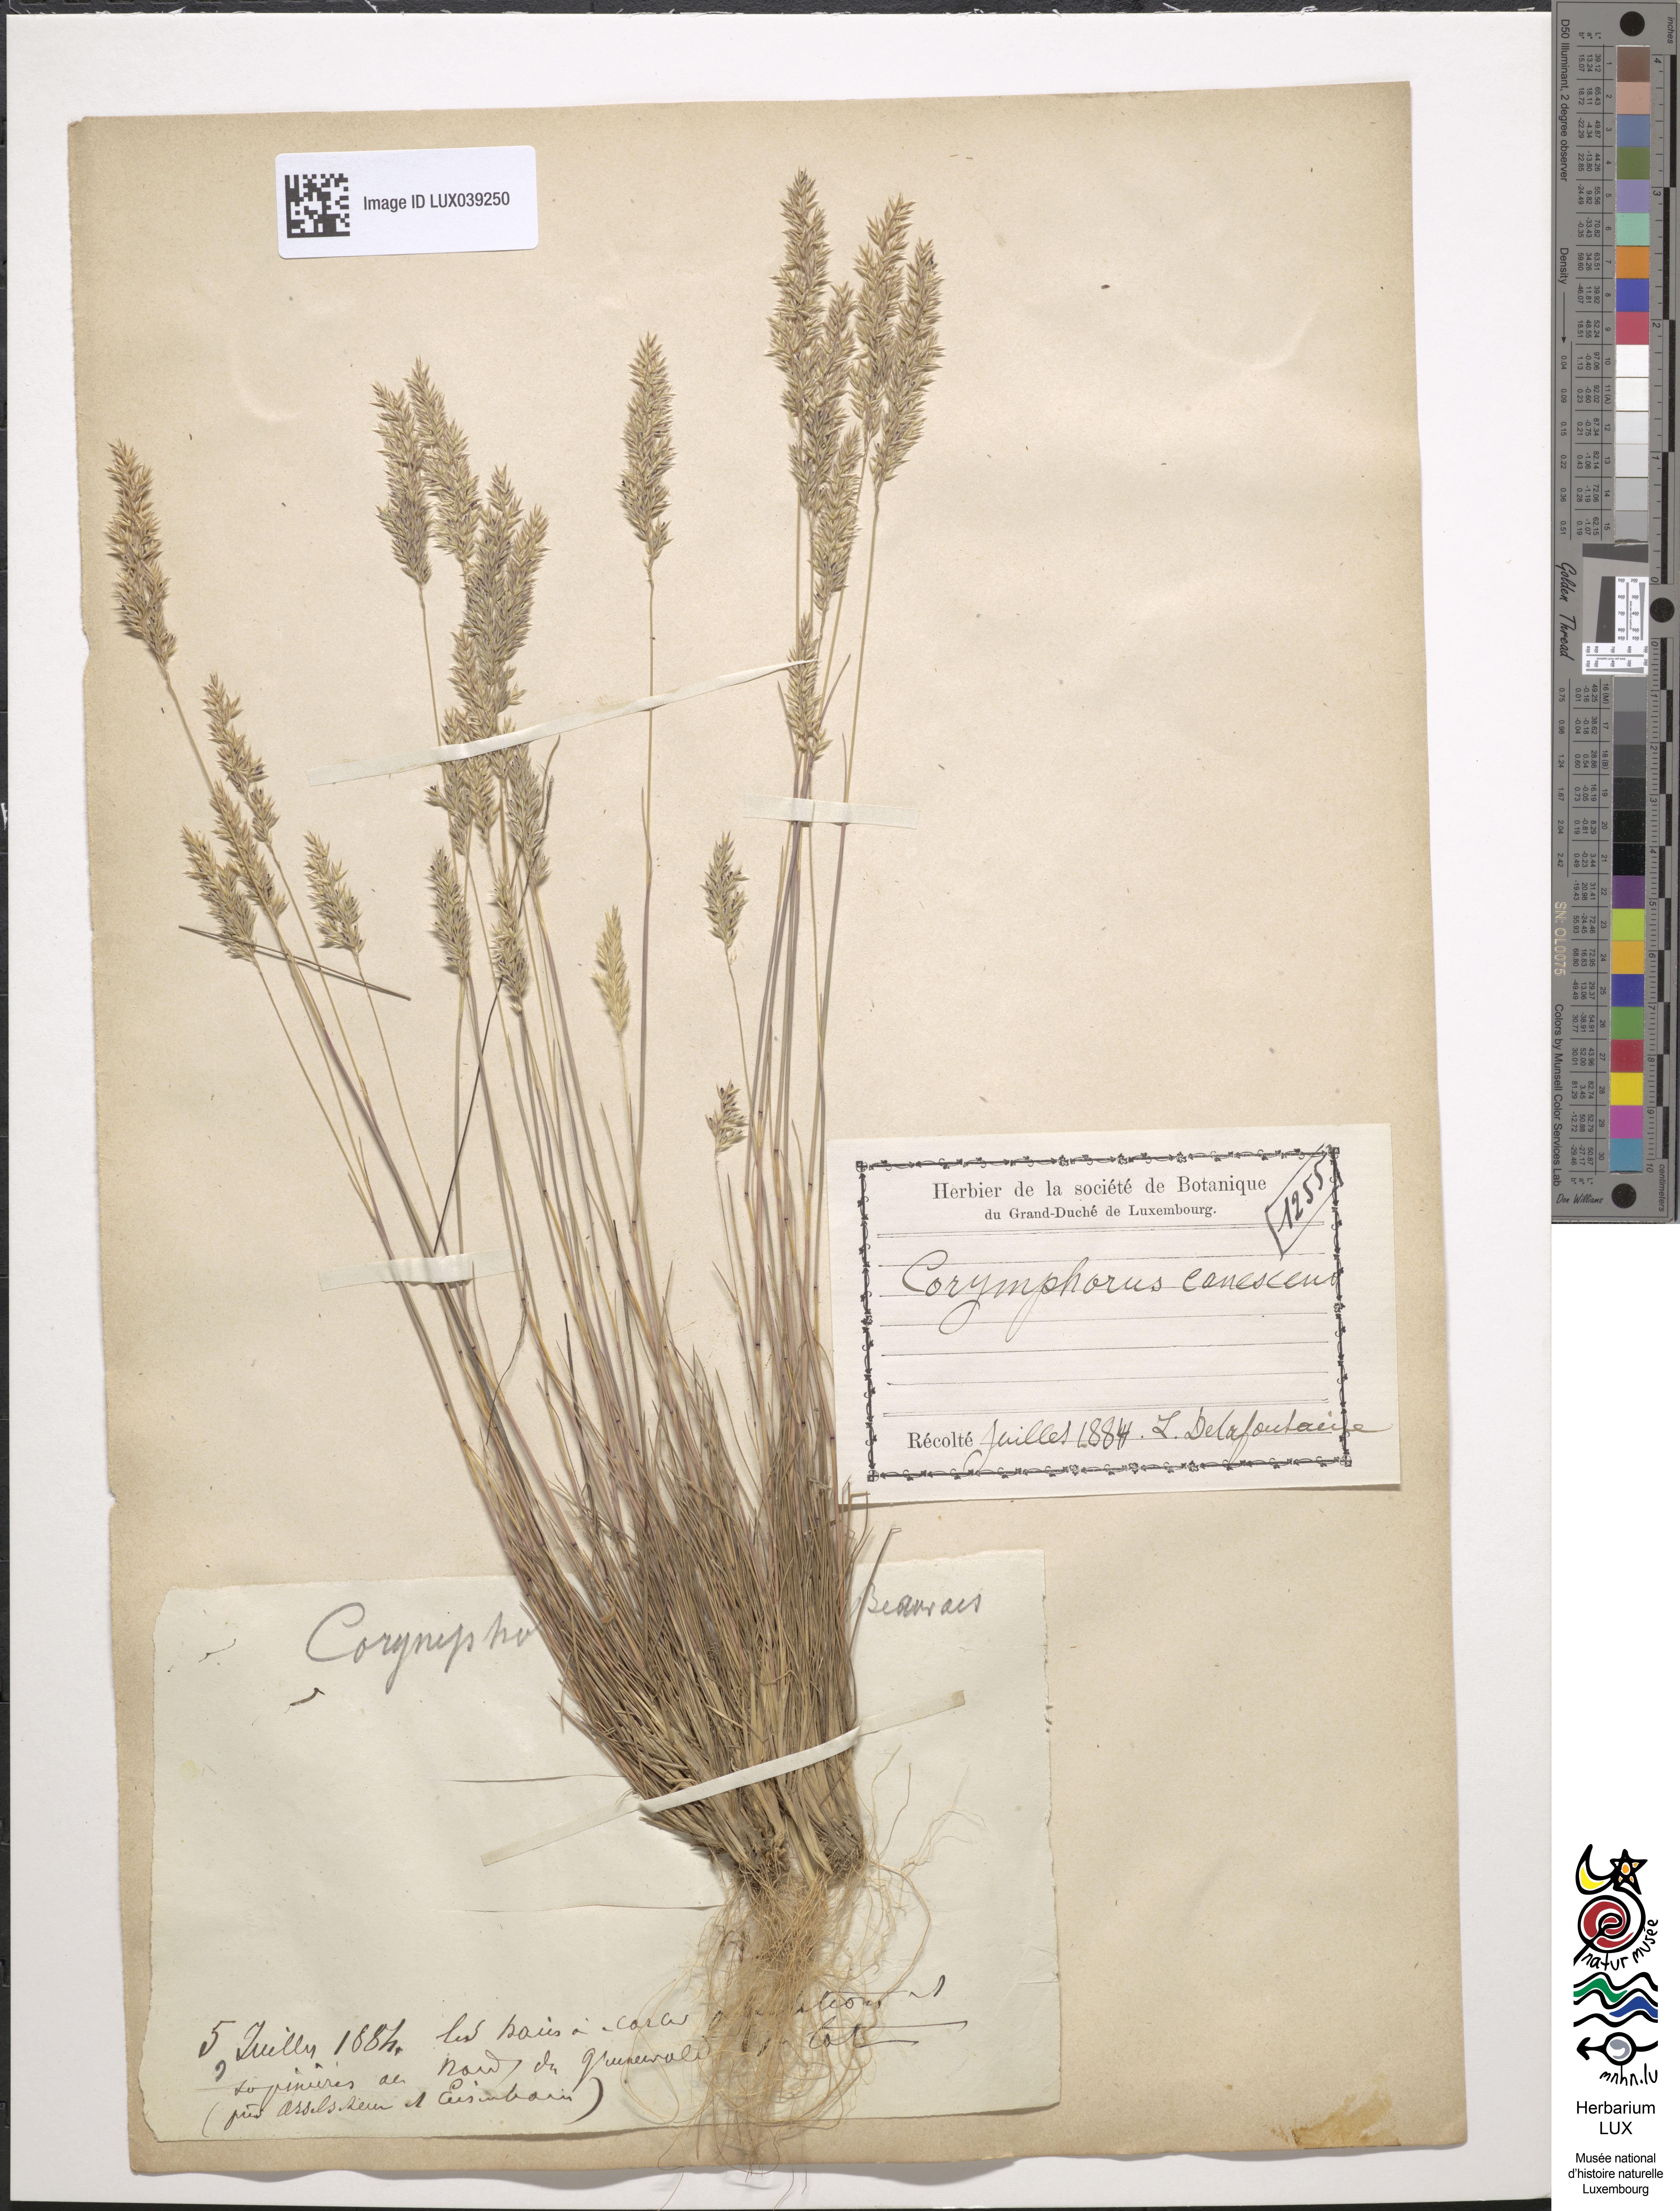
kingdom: Plantae
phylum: Tracheophyta
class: Liliopsida
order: Poales
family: Poaceae
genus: Corynephorus
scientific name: Corynephorus canescens
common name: Grey hair-grass
